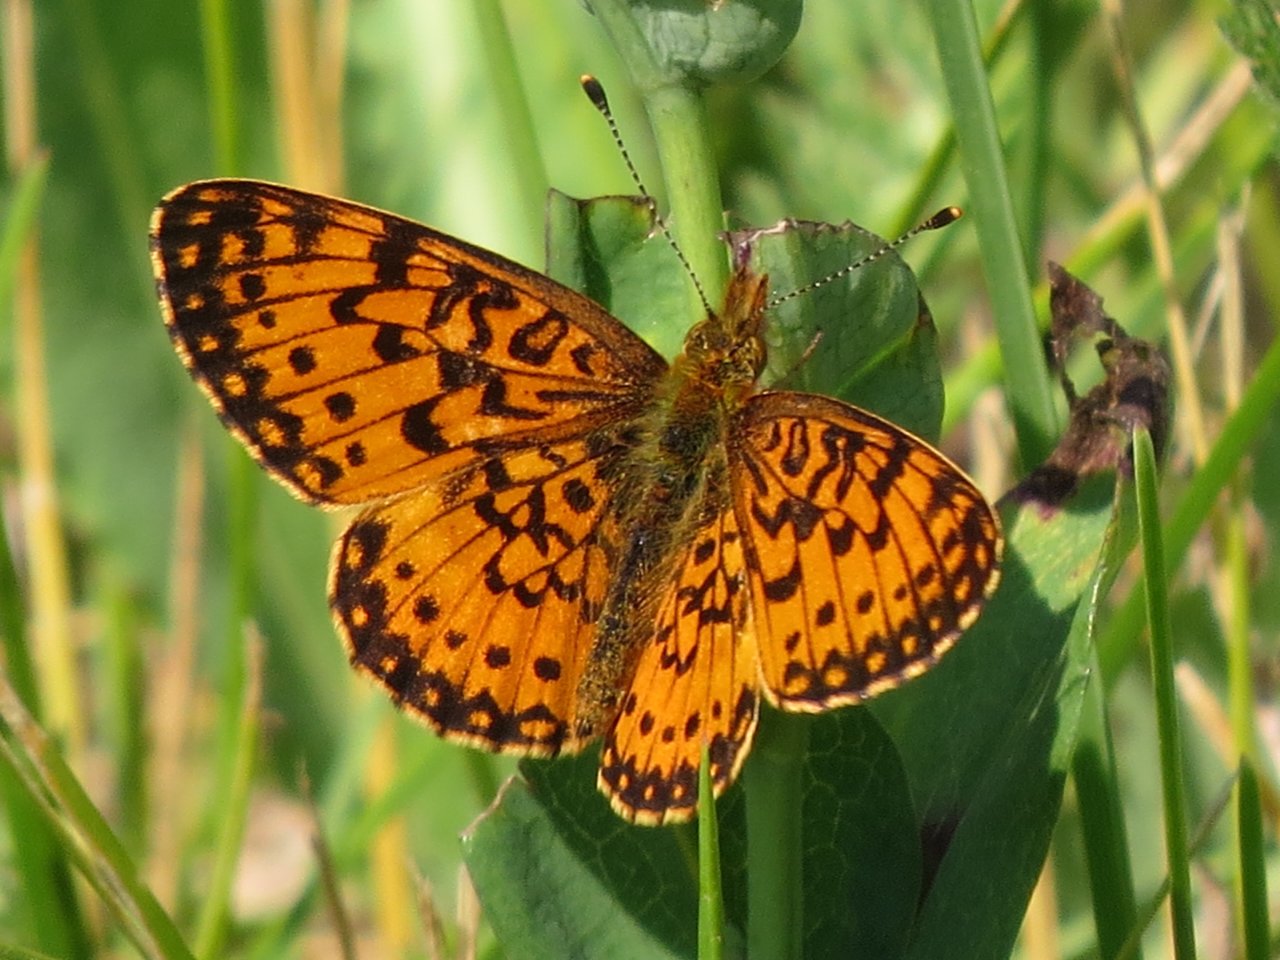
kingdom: Animalia
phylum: Arthropoda
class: Insecta
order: Lepidoptera
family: Nymphalidae
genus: Boloria
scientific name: Boloria selene
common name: Silver-bordered Fritillary
